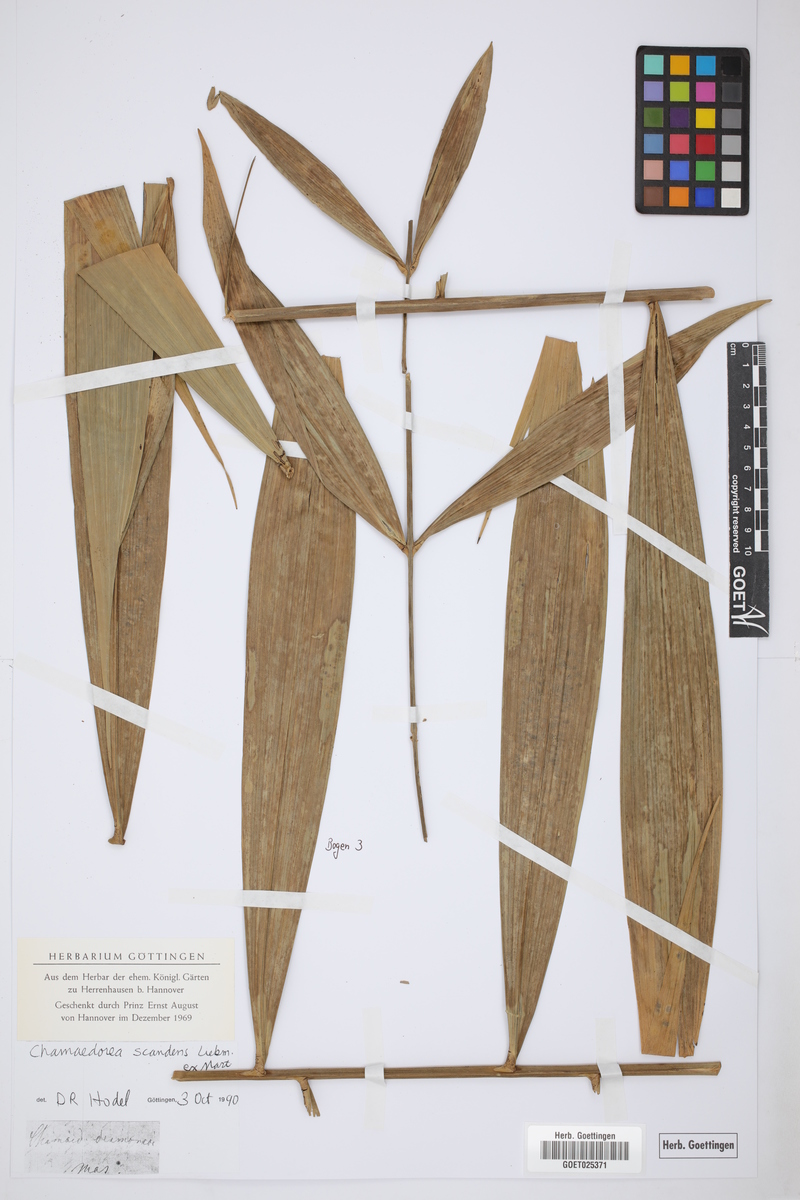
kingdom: Plantae
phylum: Tracheophyta
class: Liliopsida
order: Arecales
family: Arecaceae
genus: Chamaedorea
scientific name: Chamaedorea elatior
